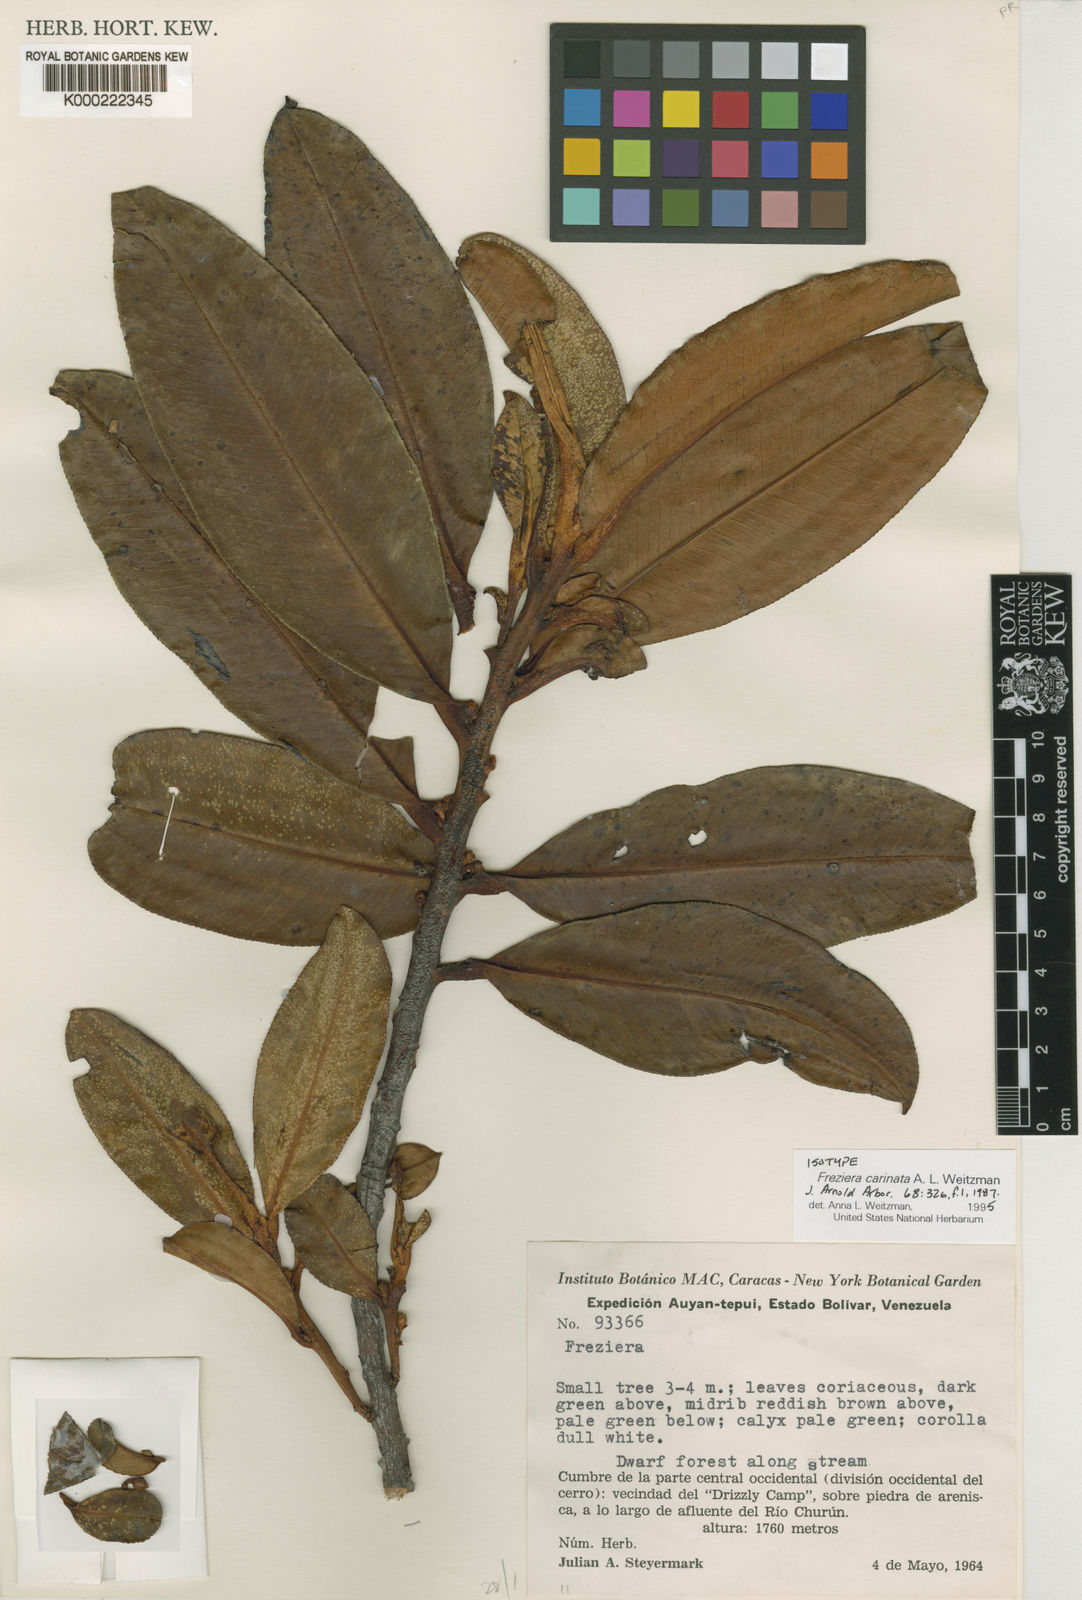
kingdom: Plantae
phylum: Tracheophyta
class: Magnoliopsida
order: Ericales
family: Pentaphylacaceae
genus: Freziera
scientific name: Freziera carinata
